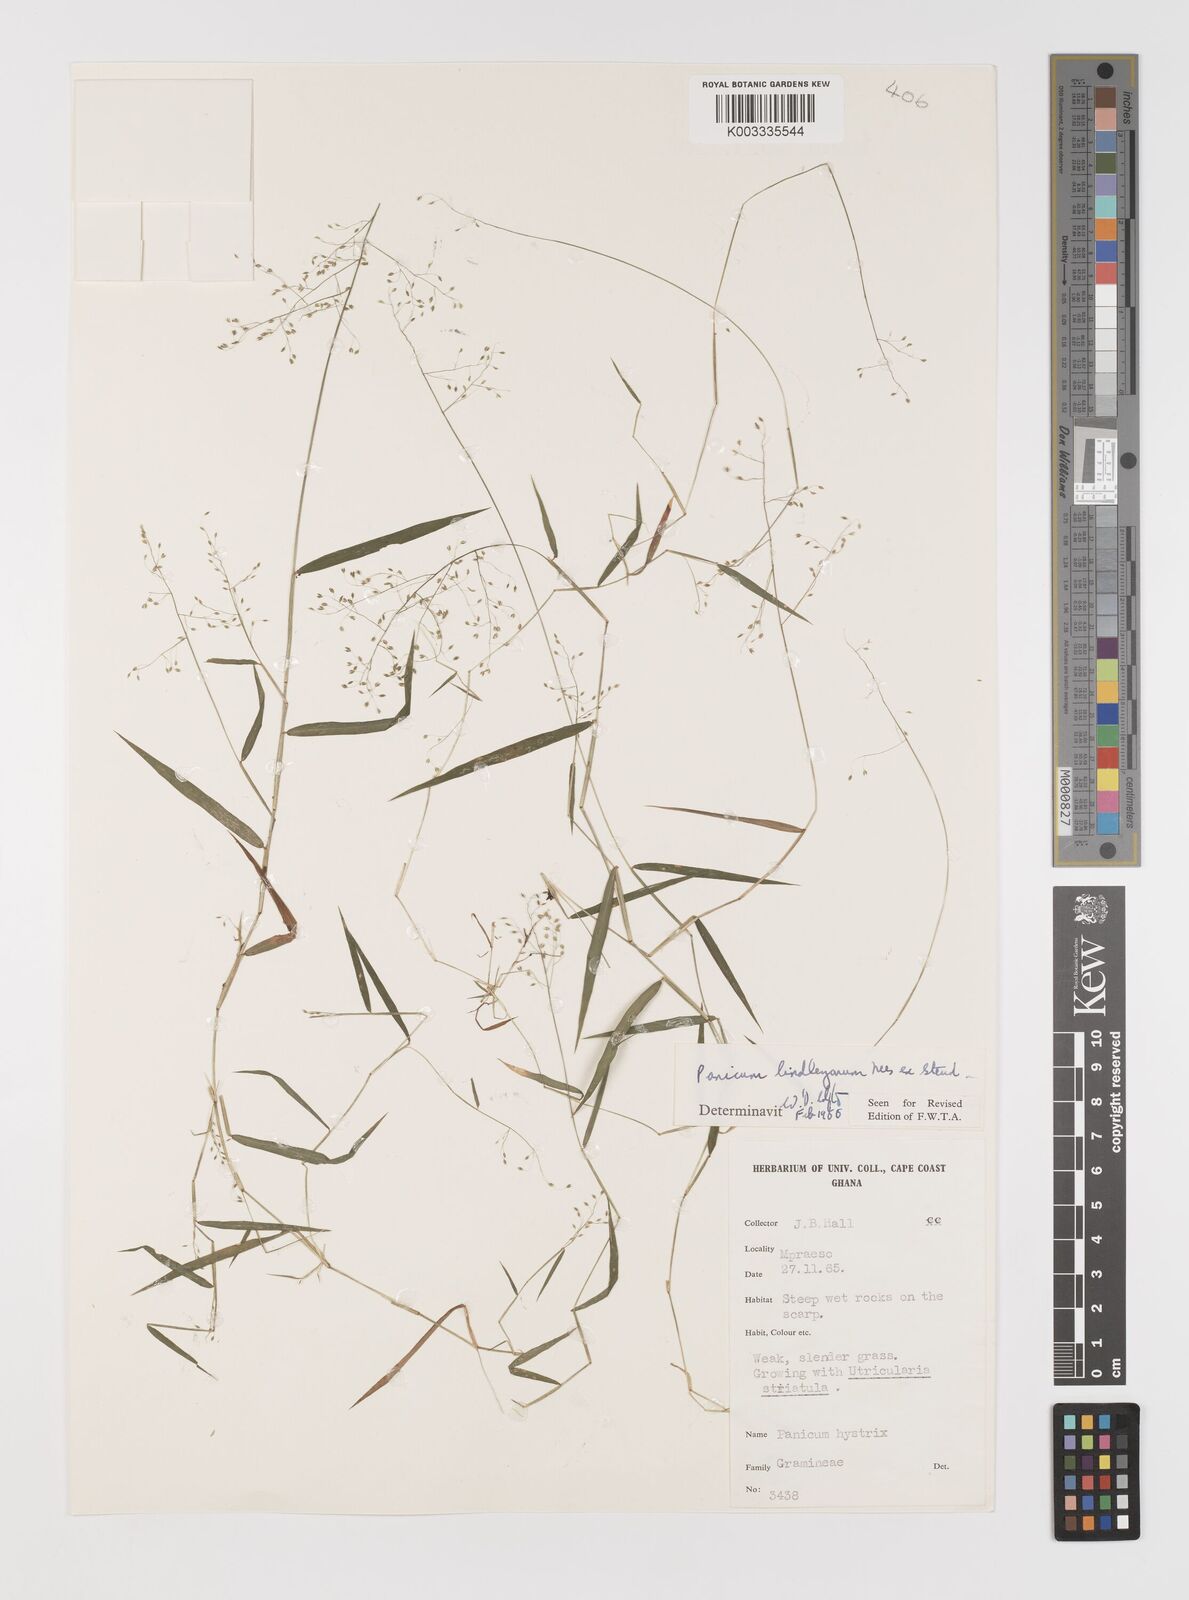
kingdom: Plantae
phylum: Tracheophyta
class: Liliopsida
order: Poales
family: Poaceae
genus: Trichanthecium
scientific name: Trichanthecium tenellum
